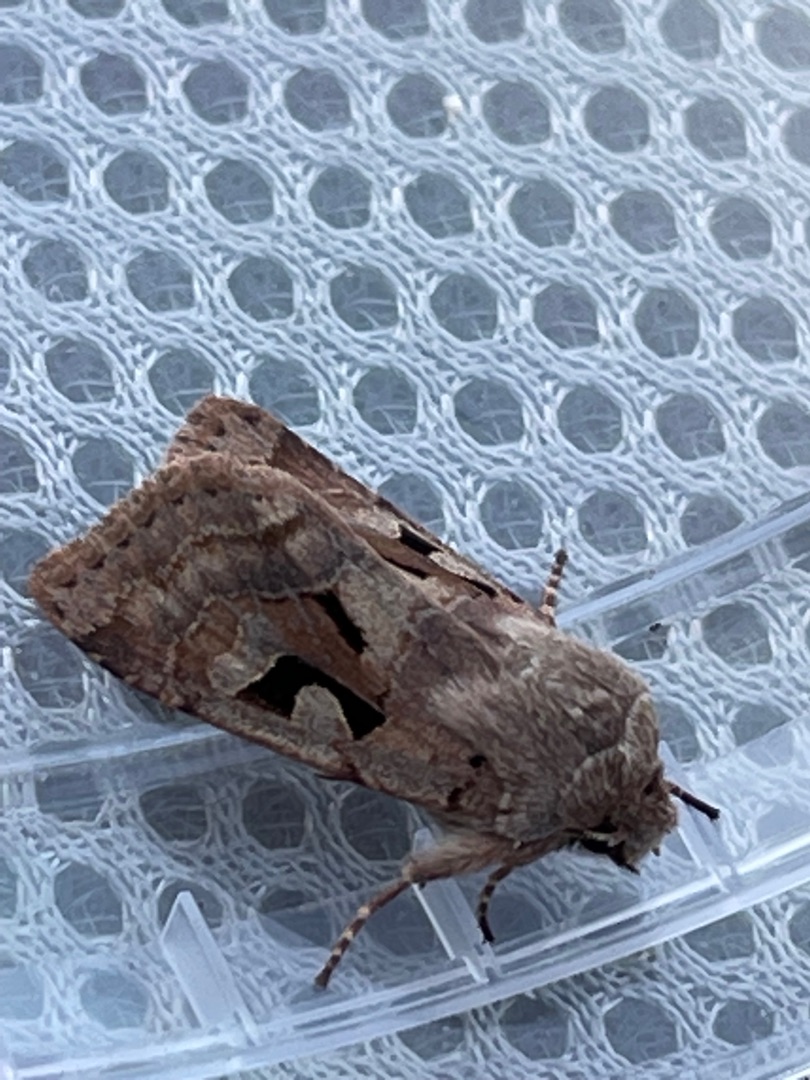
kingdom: Animalia
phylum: Arthropoda
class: Insecta
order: Lepidoptera
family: Noctuidae
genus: Orthosia
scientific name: Orthosia gothica
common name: Gotisk forårsugle
